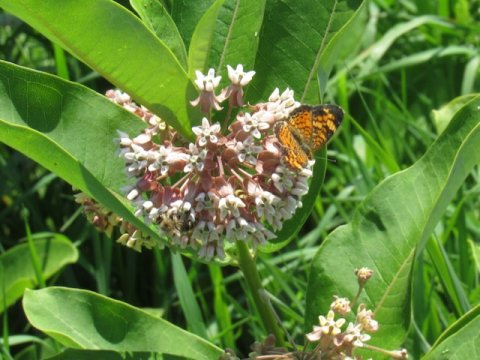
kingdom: Animalia
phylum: Arthropoda
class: Insecta
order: Lepidoptera
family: Nymphalidae
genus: Phyciodes
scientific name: Phyciodes tharos
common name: Pearl Crescent
